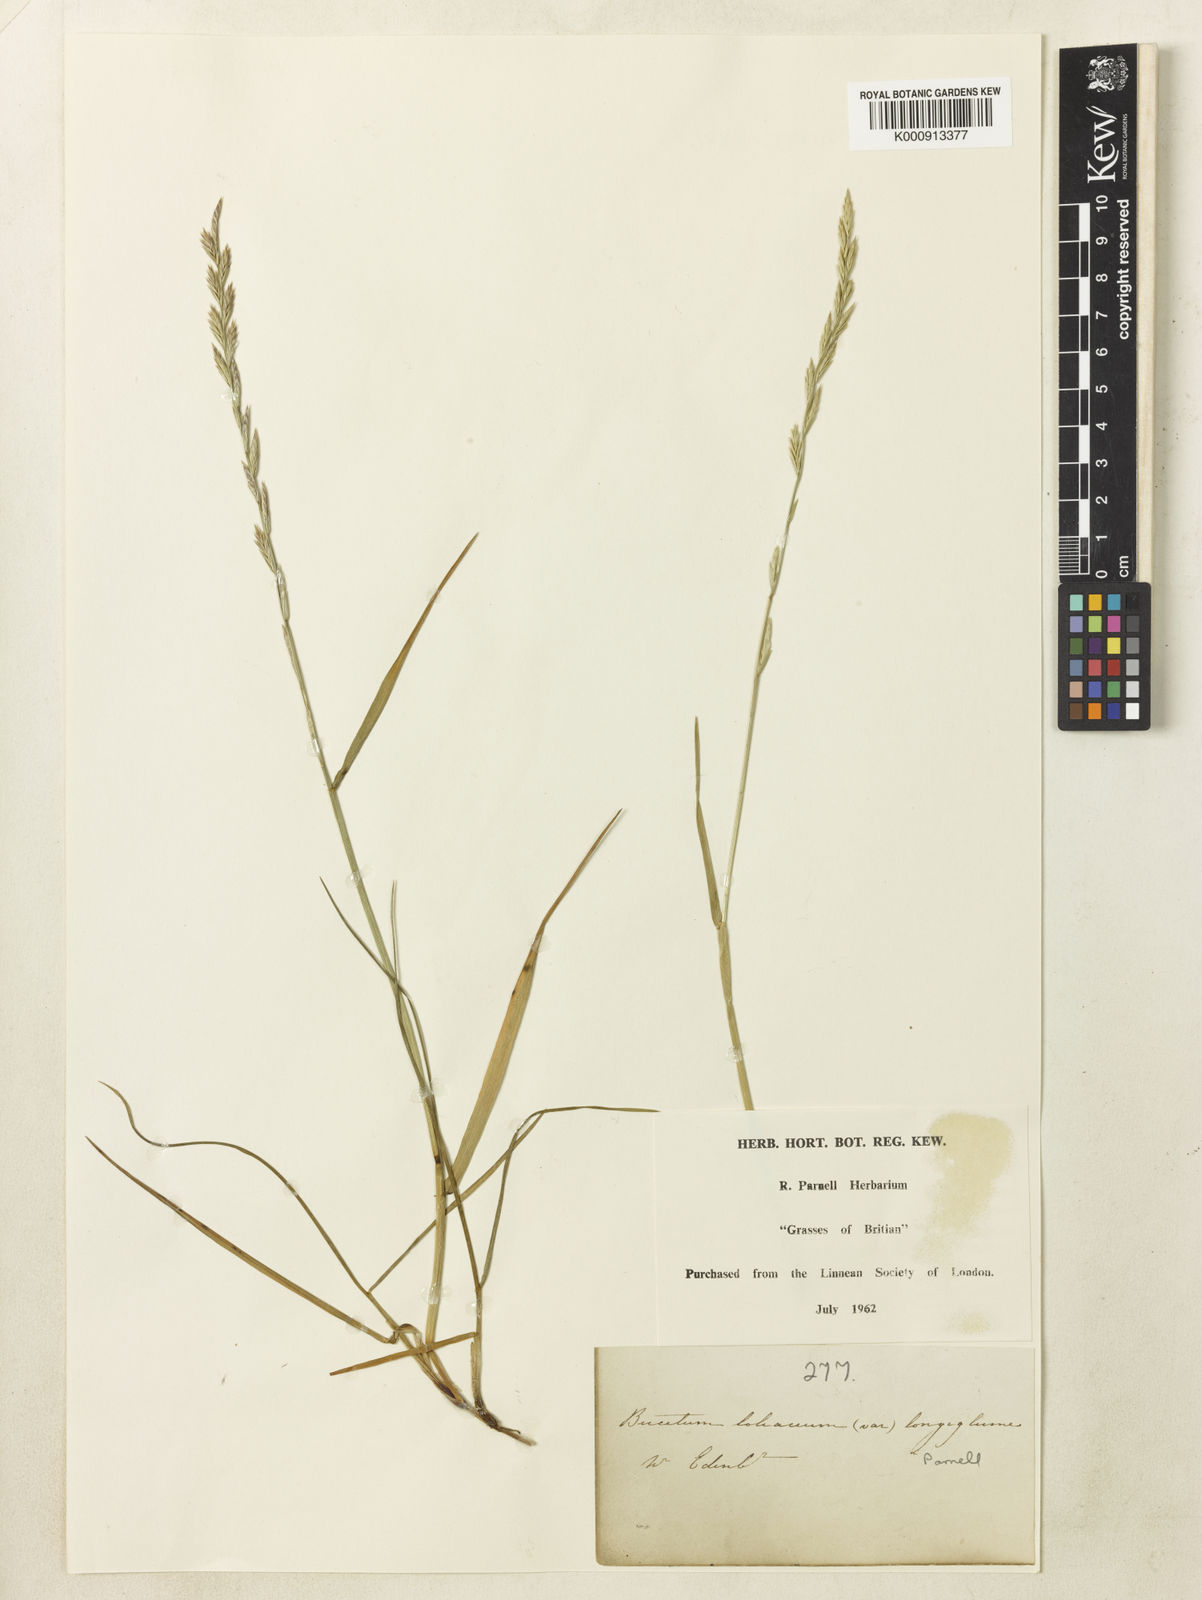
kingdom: Plantae
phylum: Tracheophyta
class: Liliopsida
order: Poales
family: Poaceae
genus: Lolium
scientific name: Lolium elongatum
